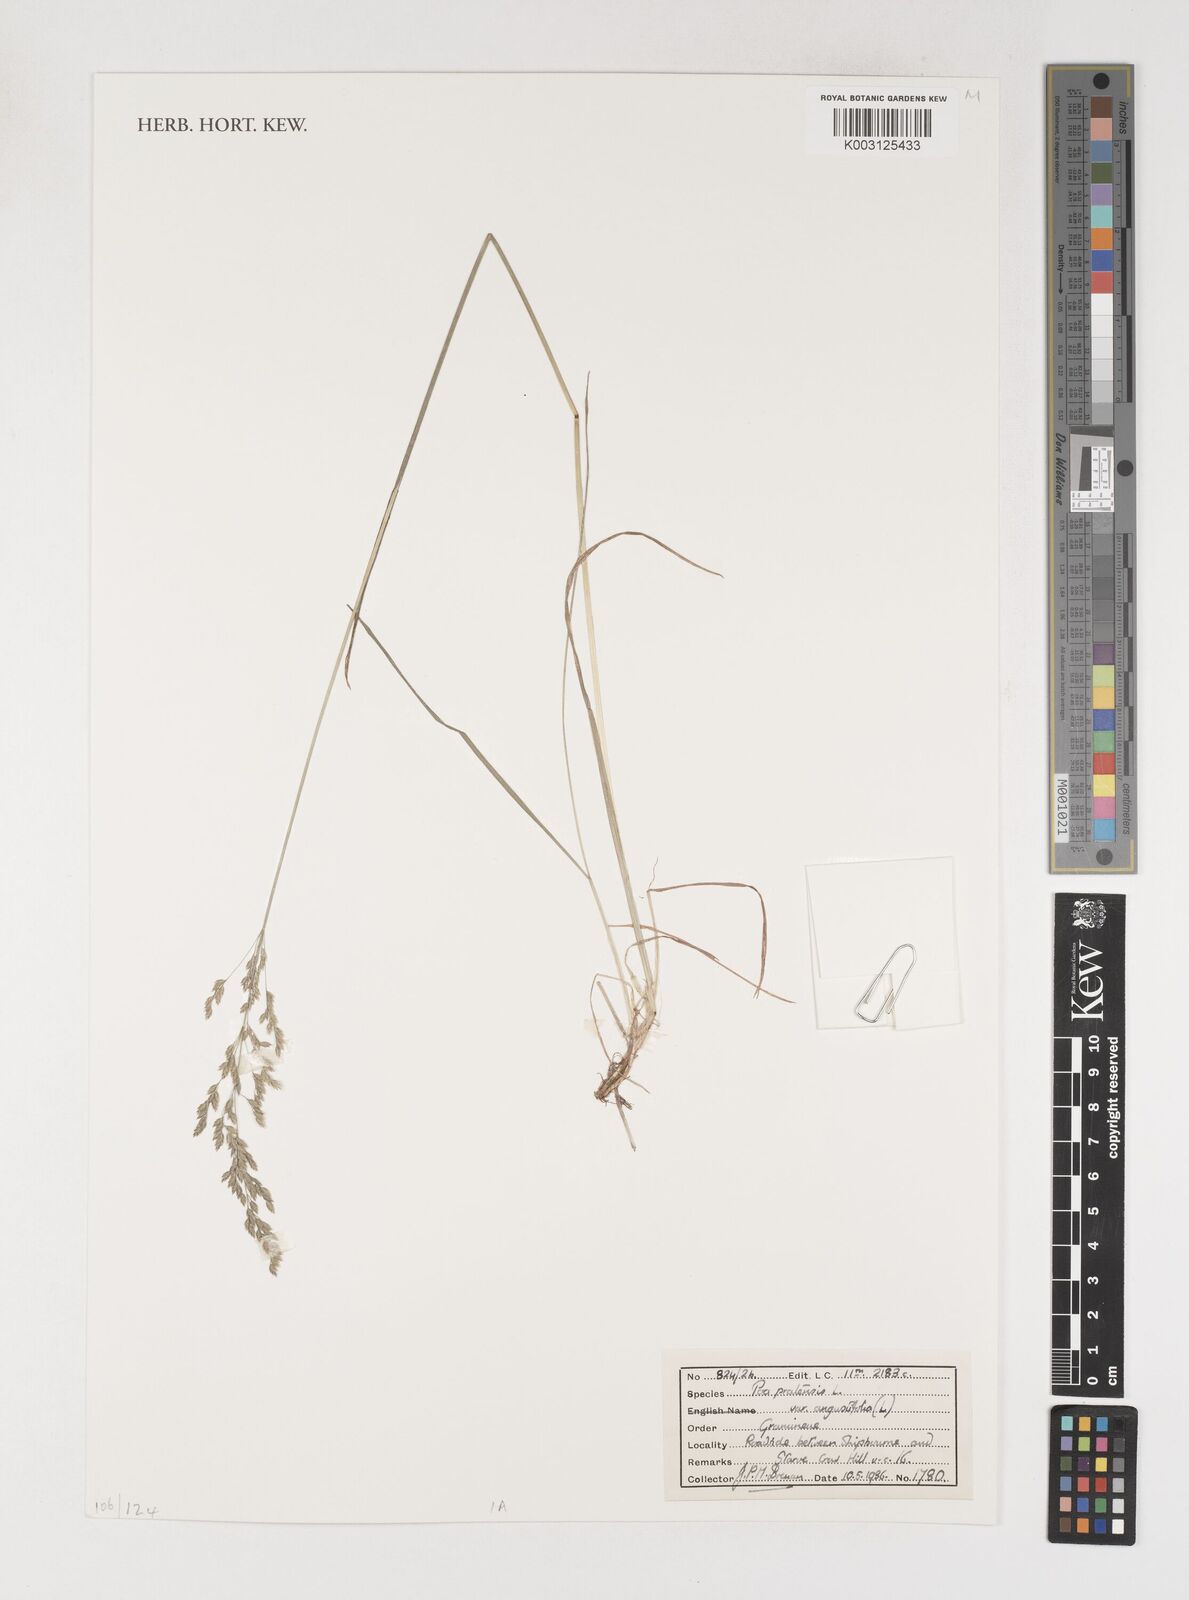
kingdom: Plantae
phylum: Tracheophyta
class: Liliopsida
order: Poales
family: Poaceae
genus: Poa
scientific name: Poa angustifolia
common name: Narrow-leaved meadow-grass
